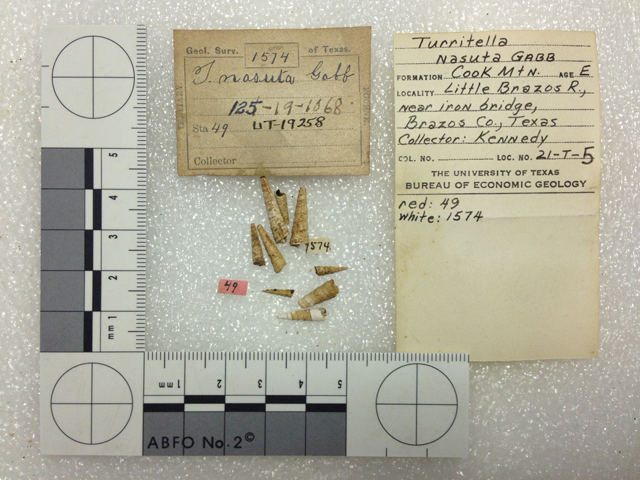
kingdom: Animalia
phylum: Mollusca
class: Gastropoda
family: Turritellidae
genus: Turritella
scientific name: Turritella nasuta
